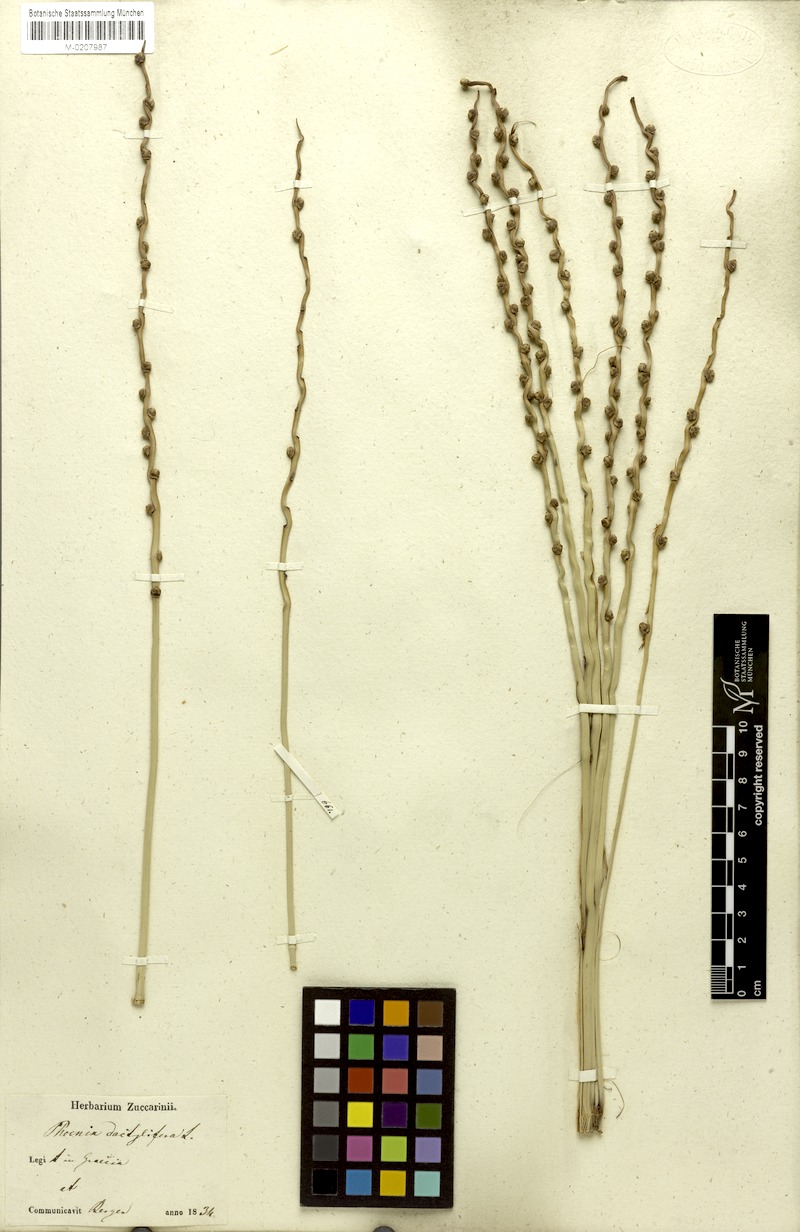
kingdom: Plantae
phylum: Tracheophyta
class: Liliopsida
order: Arecales
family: Arecaceae
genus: Phoenix
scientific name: Phoenix dactylifera
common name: Date palm
